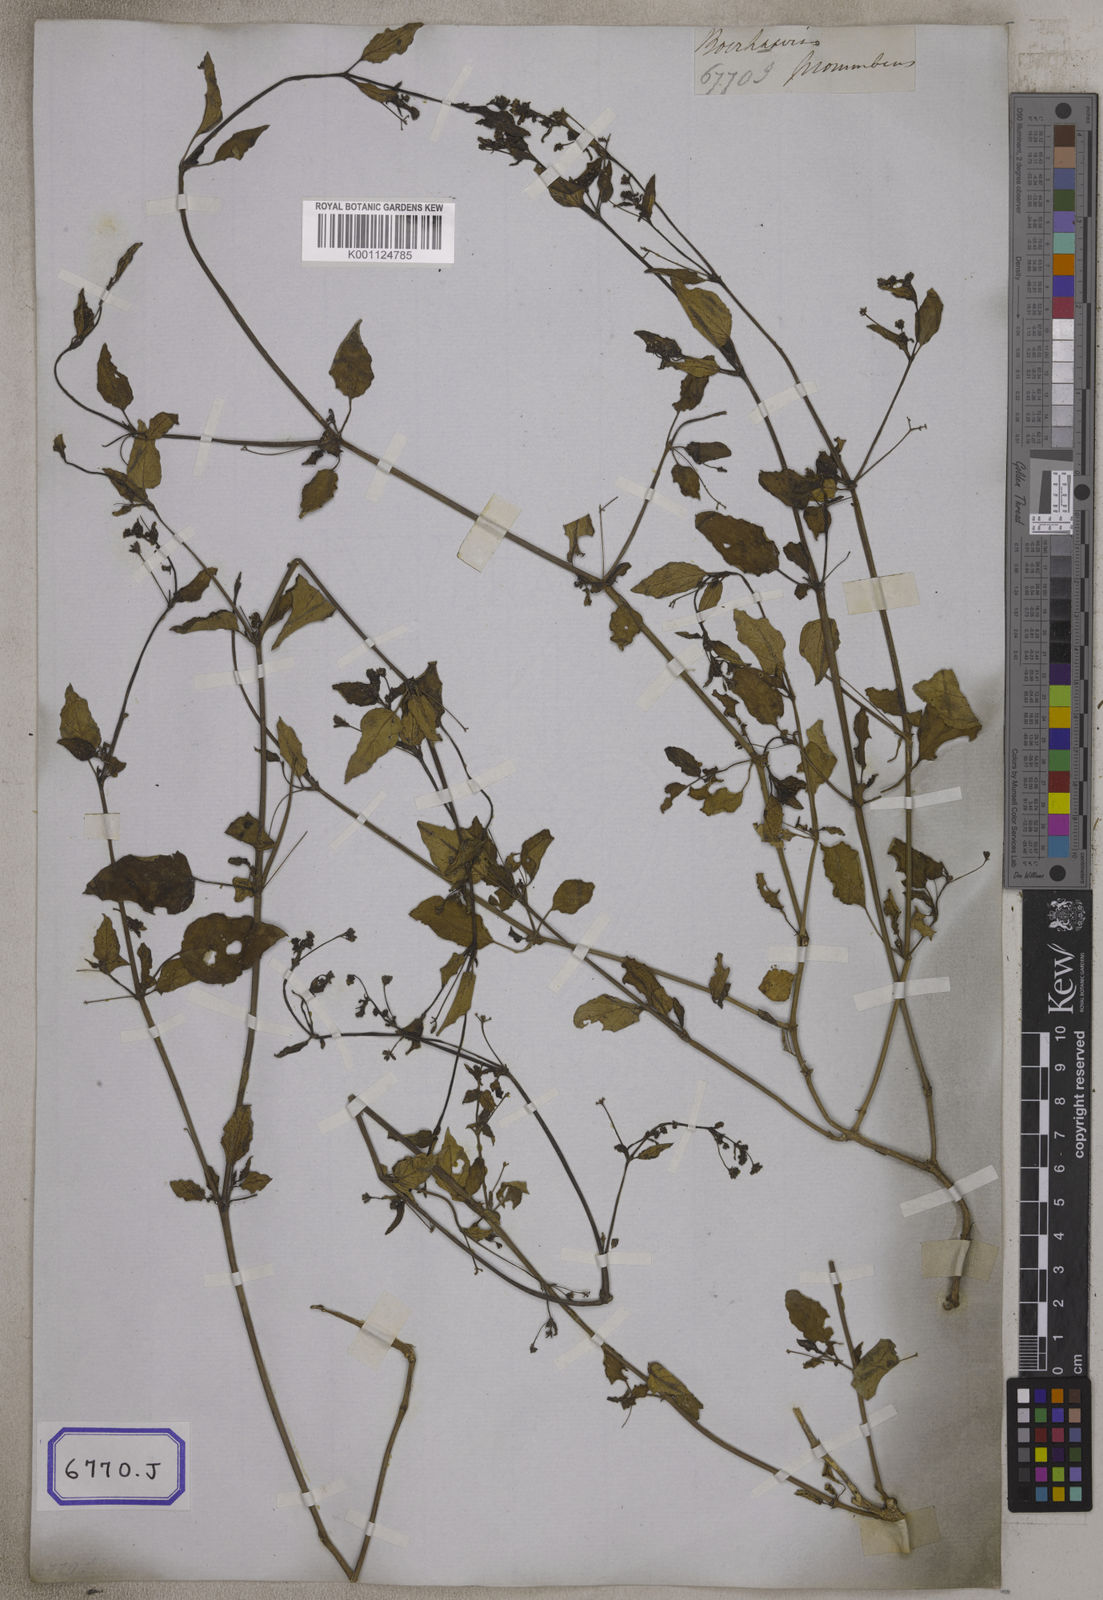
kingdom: Plantae
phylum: Tracheophyta
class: Magnoliopsida
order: Caryophyllales
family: Nyctaginaceae
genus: Boerhavia
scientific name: Boerhavia diffusa
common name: Red spiderling
